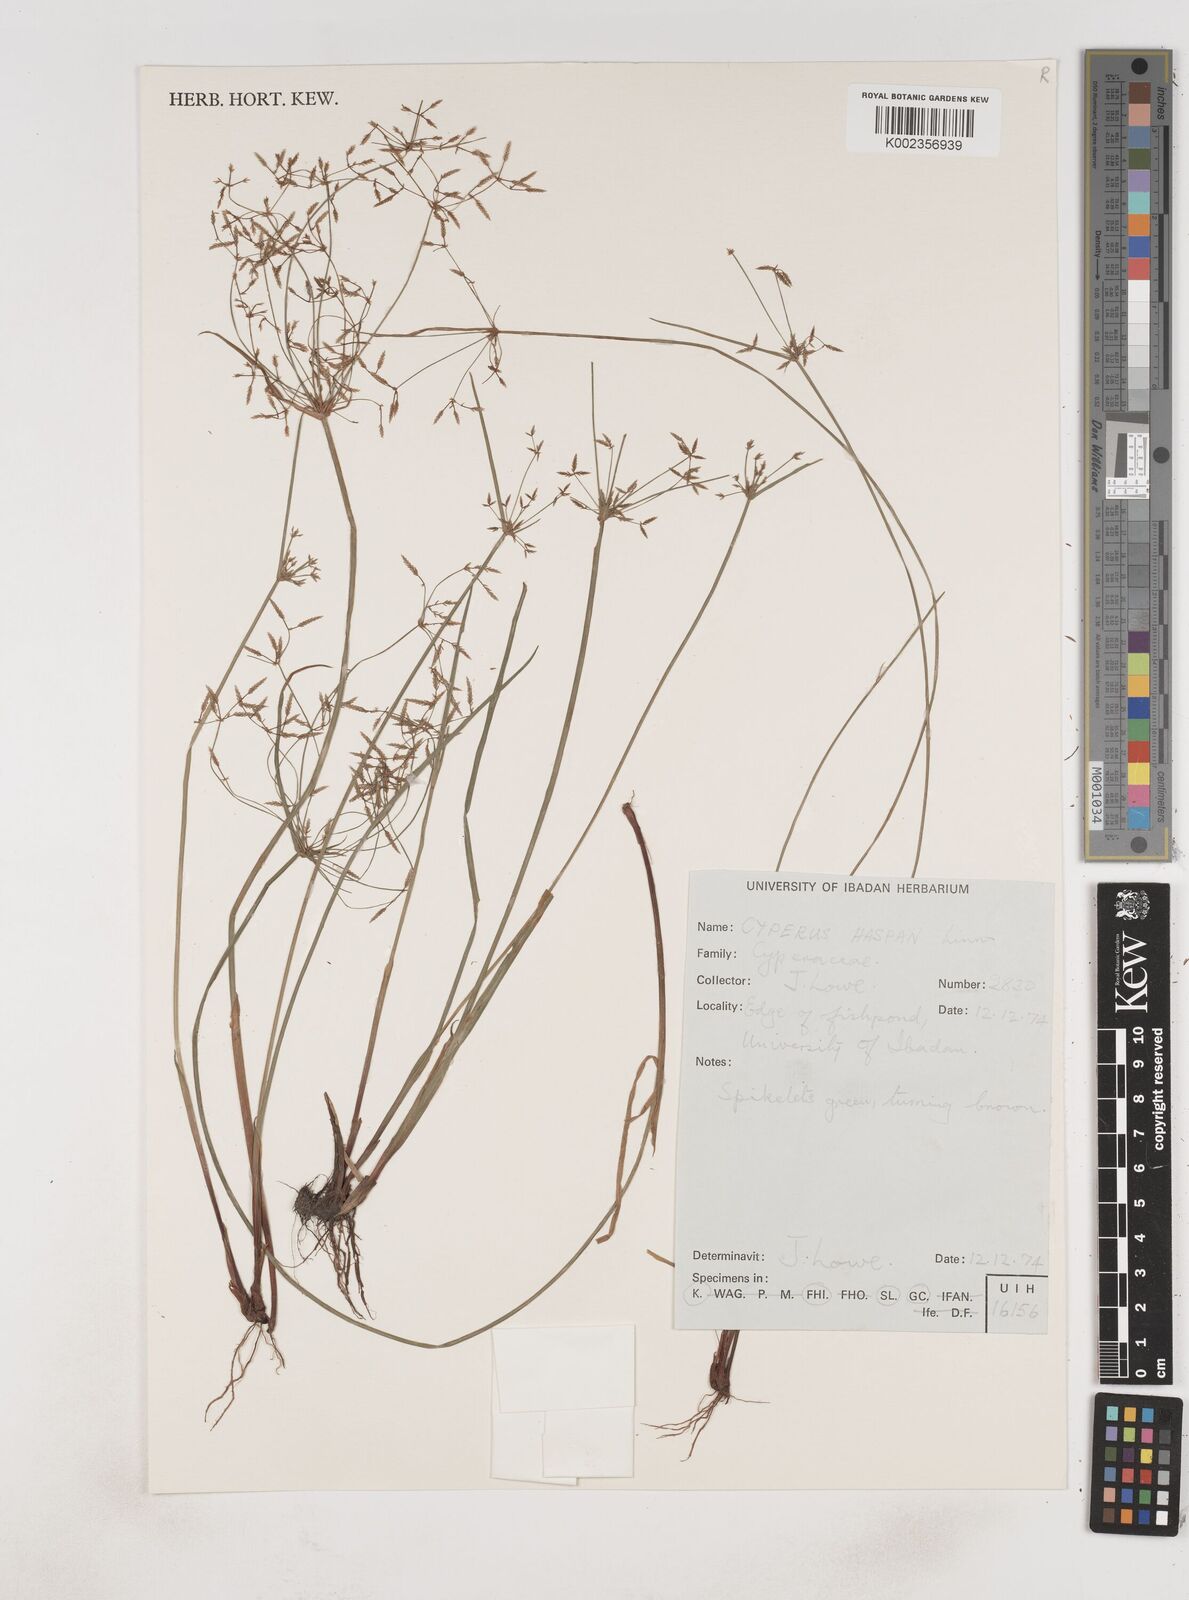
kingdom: Plantae
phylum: Tracheophyta
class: Liliopsida
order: Poales
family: Cyperaceae
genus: Cyperus
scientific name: Cyperus haspan
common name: Haspan flatsedge
